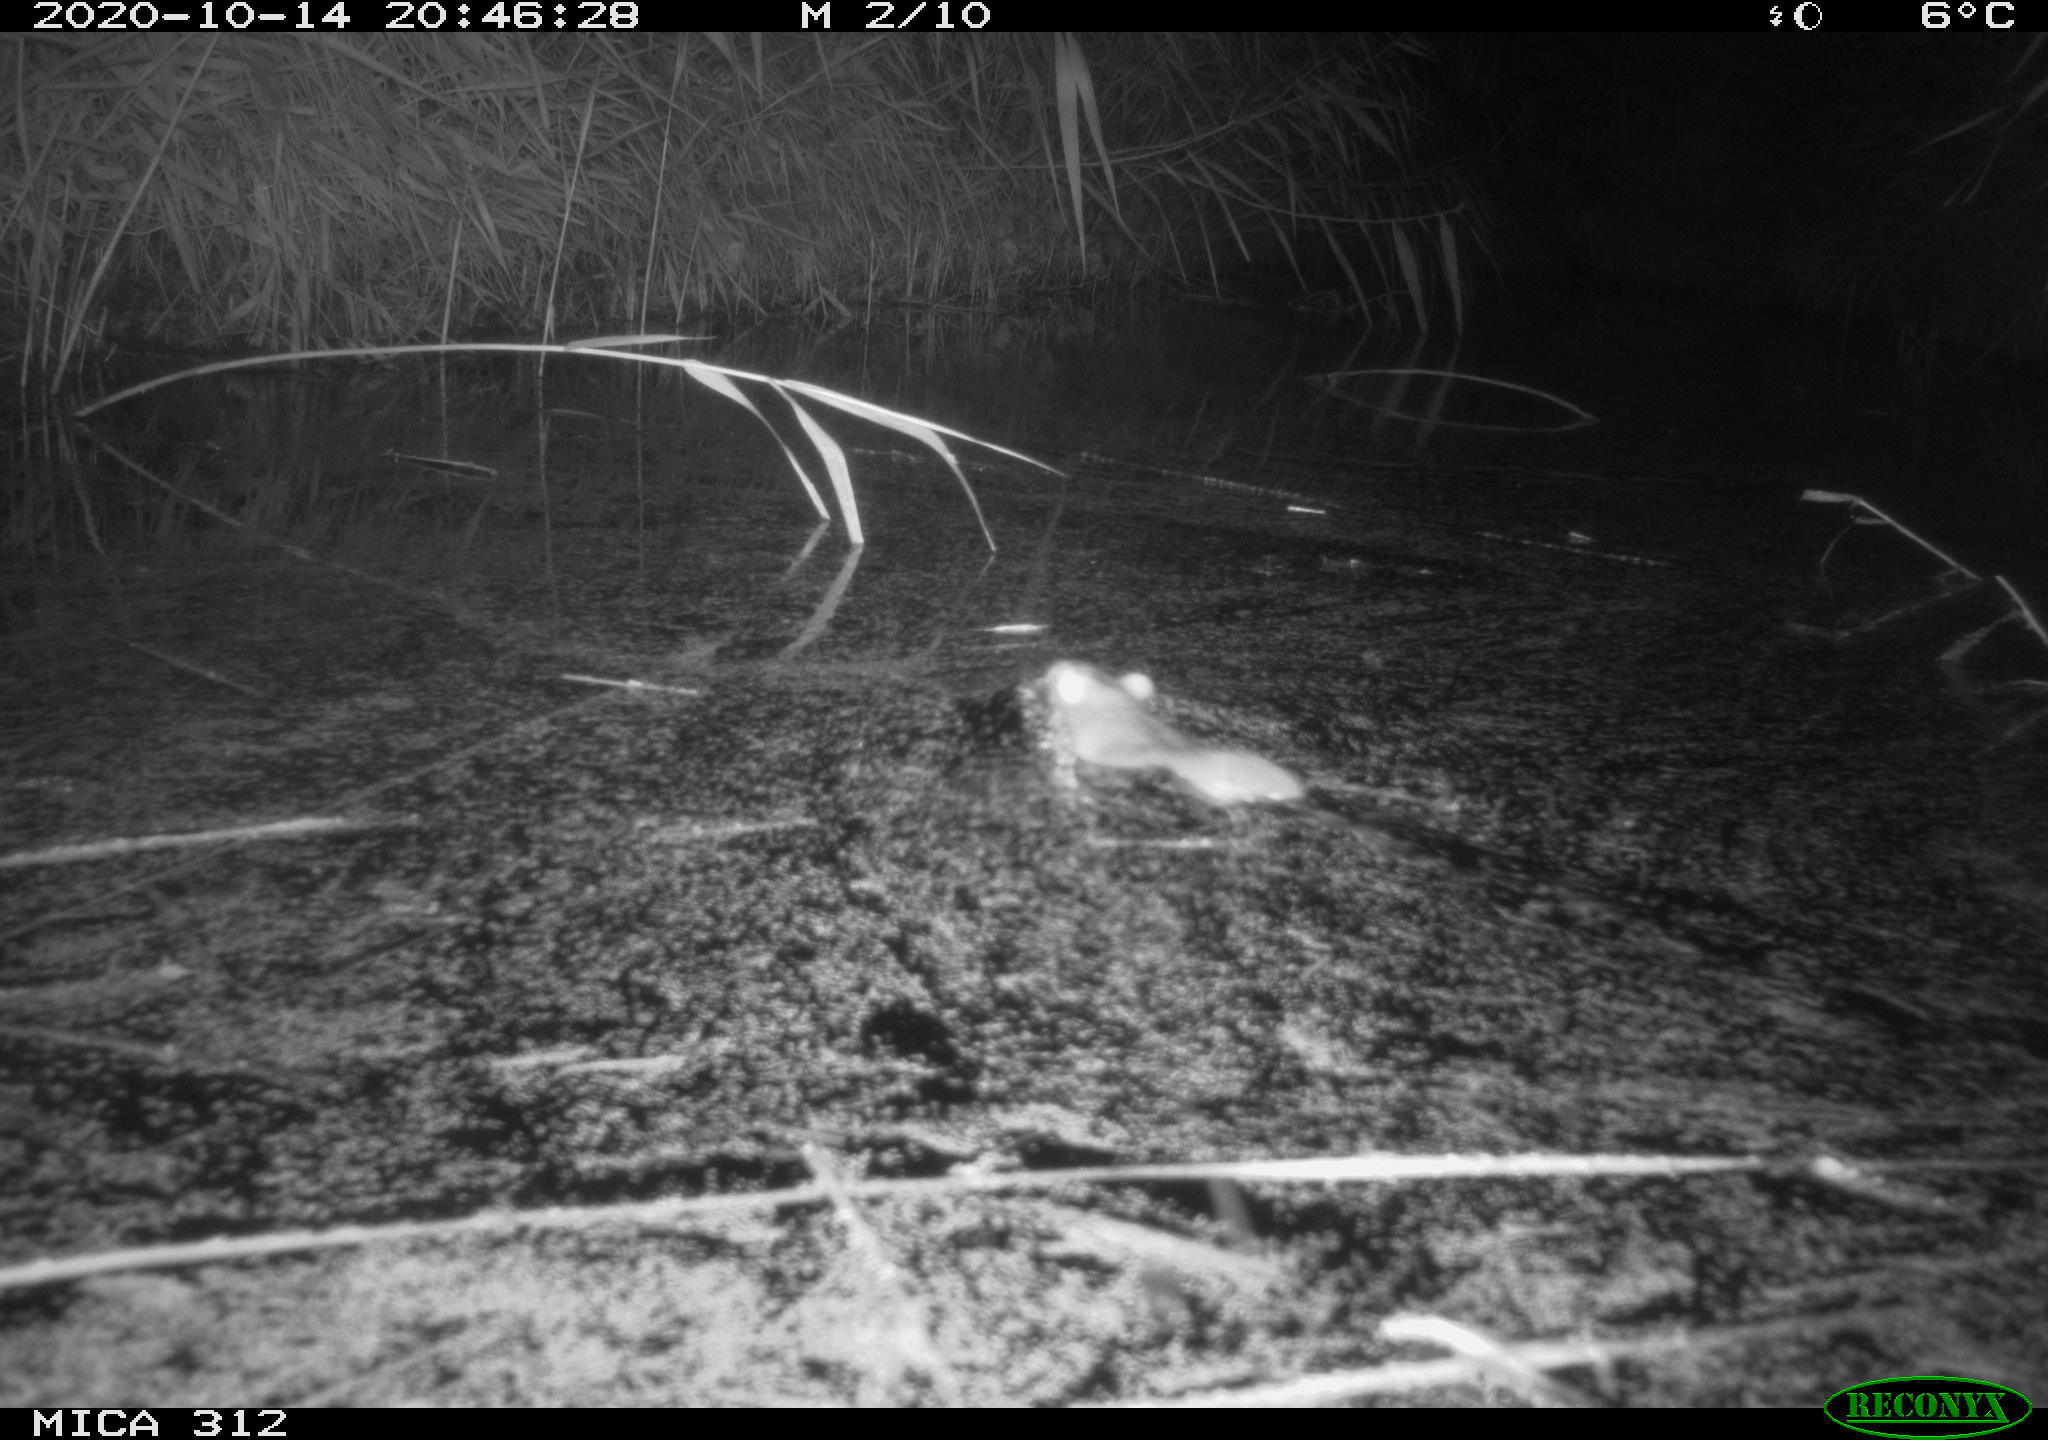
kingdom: Animalia
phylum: Chordata
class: Mammalia
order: Rodentia
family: Muridae
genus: Rattus
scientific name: Rattus norvegicus
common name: Brown rat
